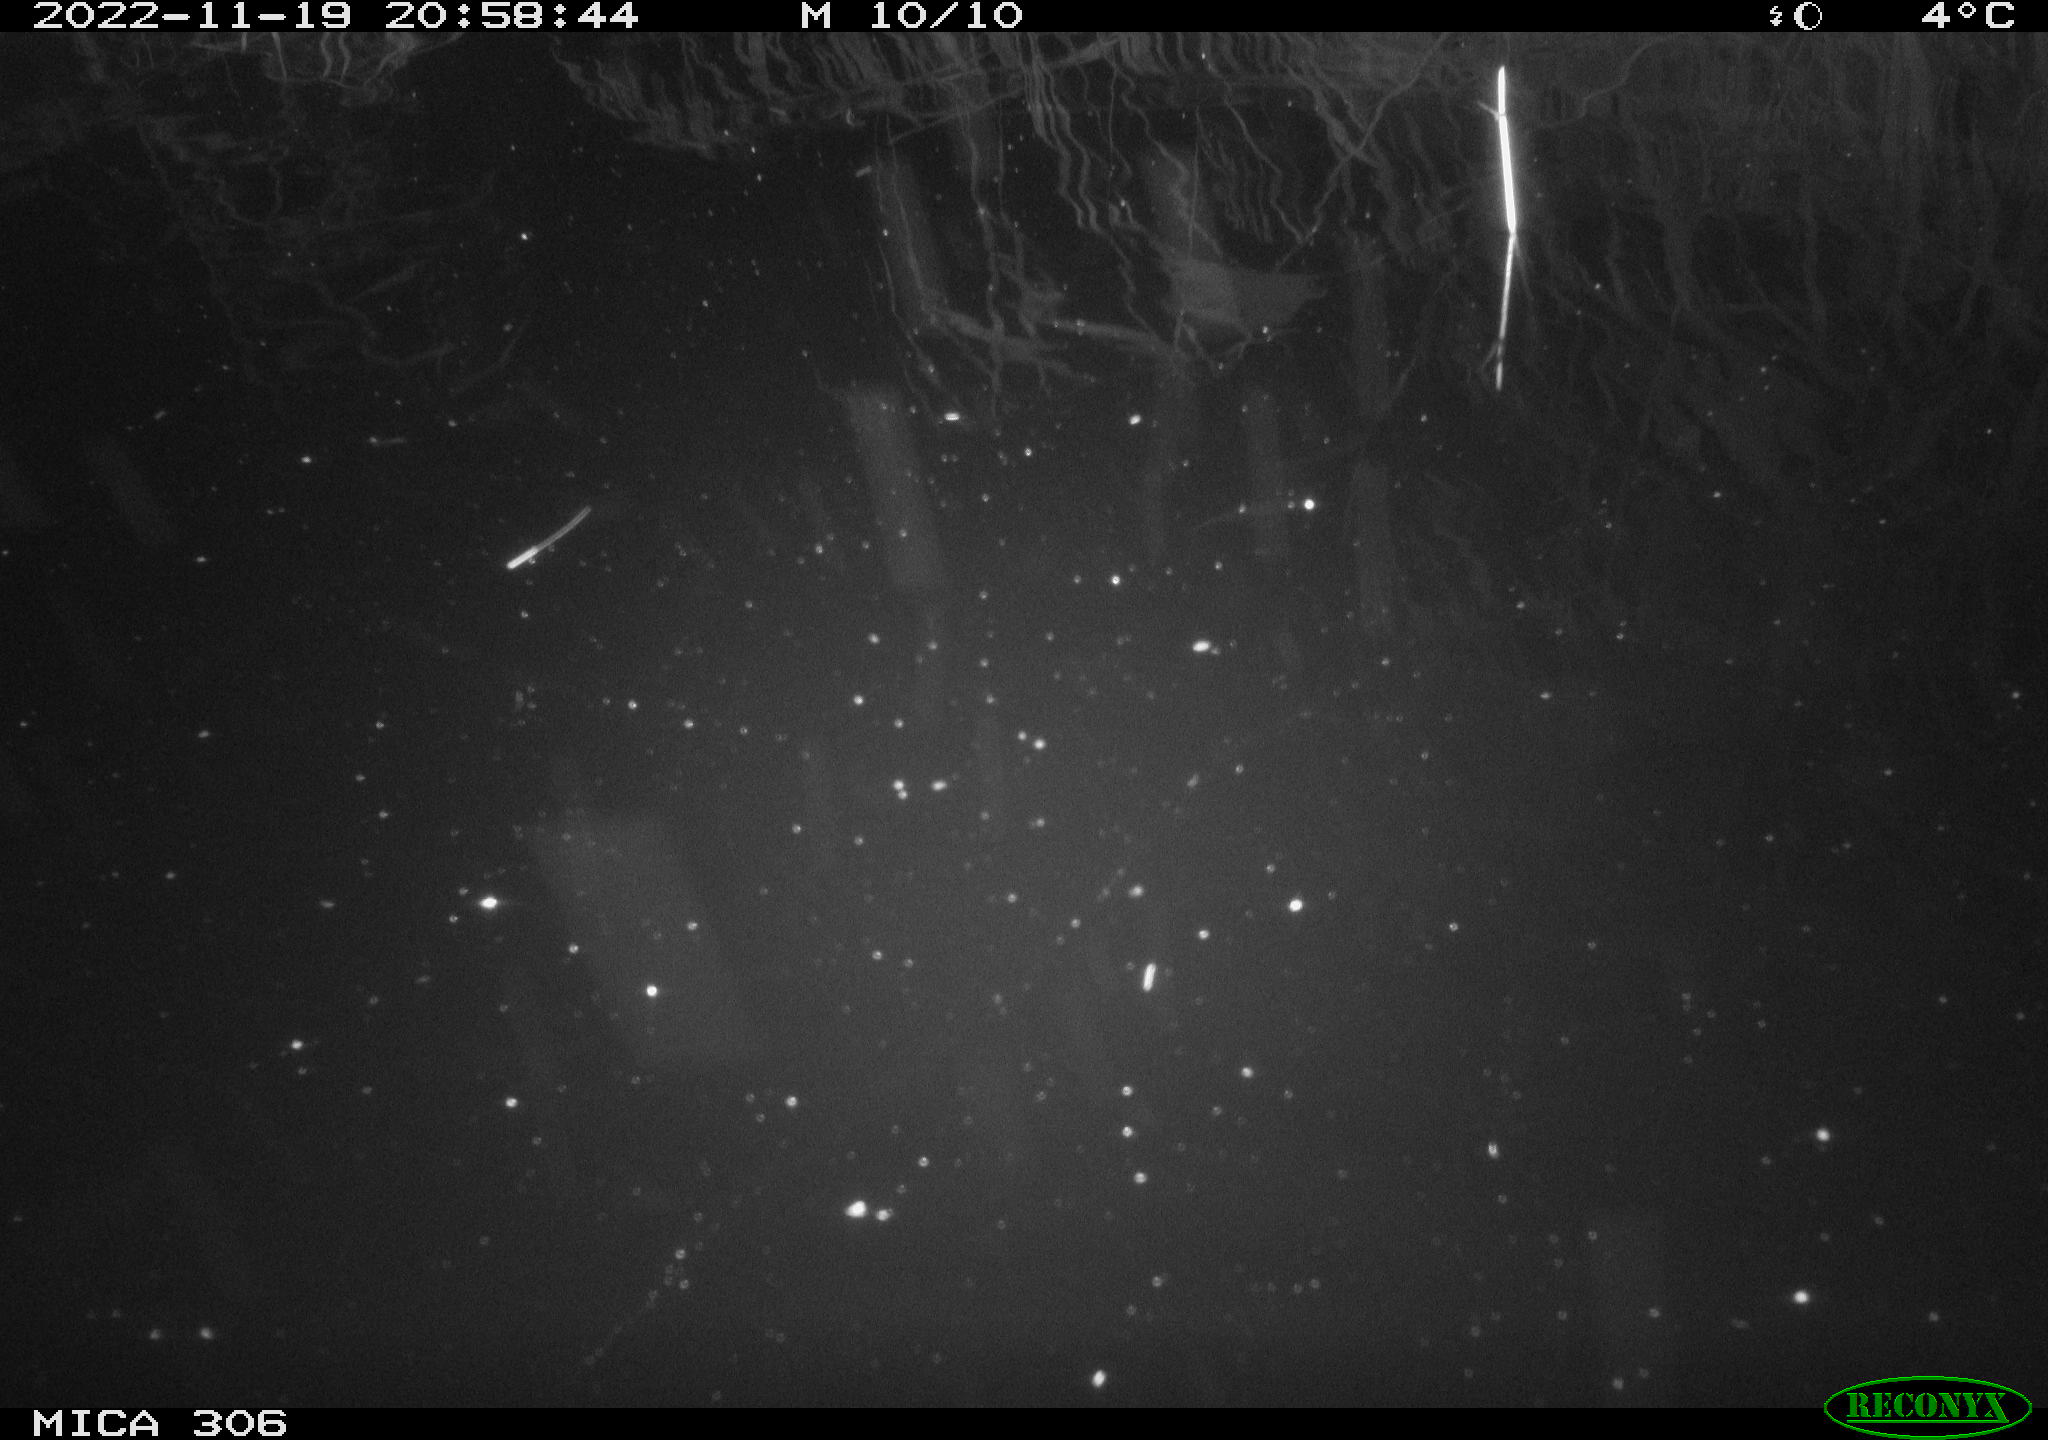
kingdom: Animalia
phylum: Chordata
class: Mammalia
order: Rodentia
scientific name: Rodentia
